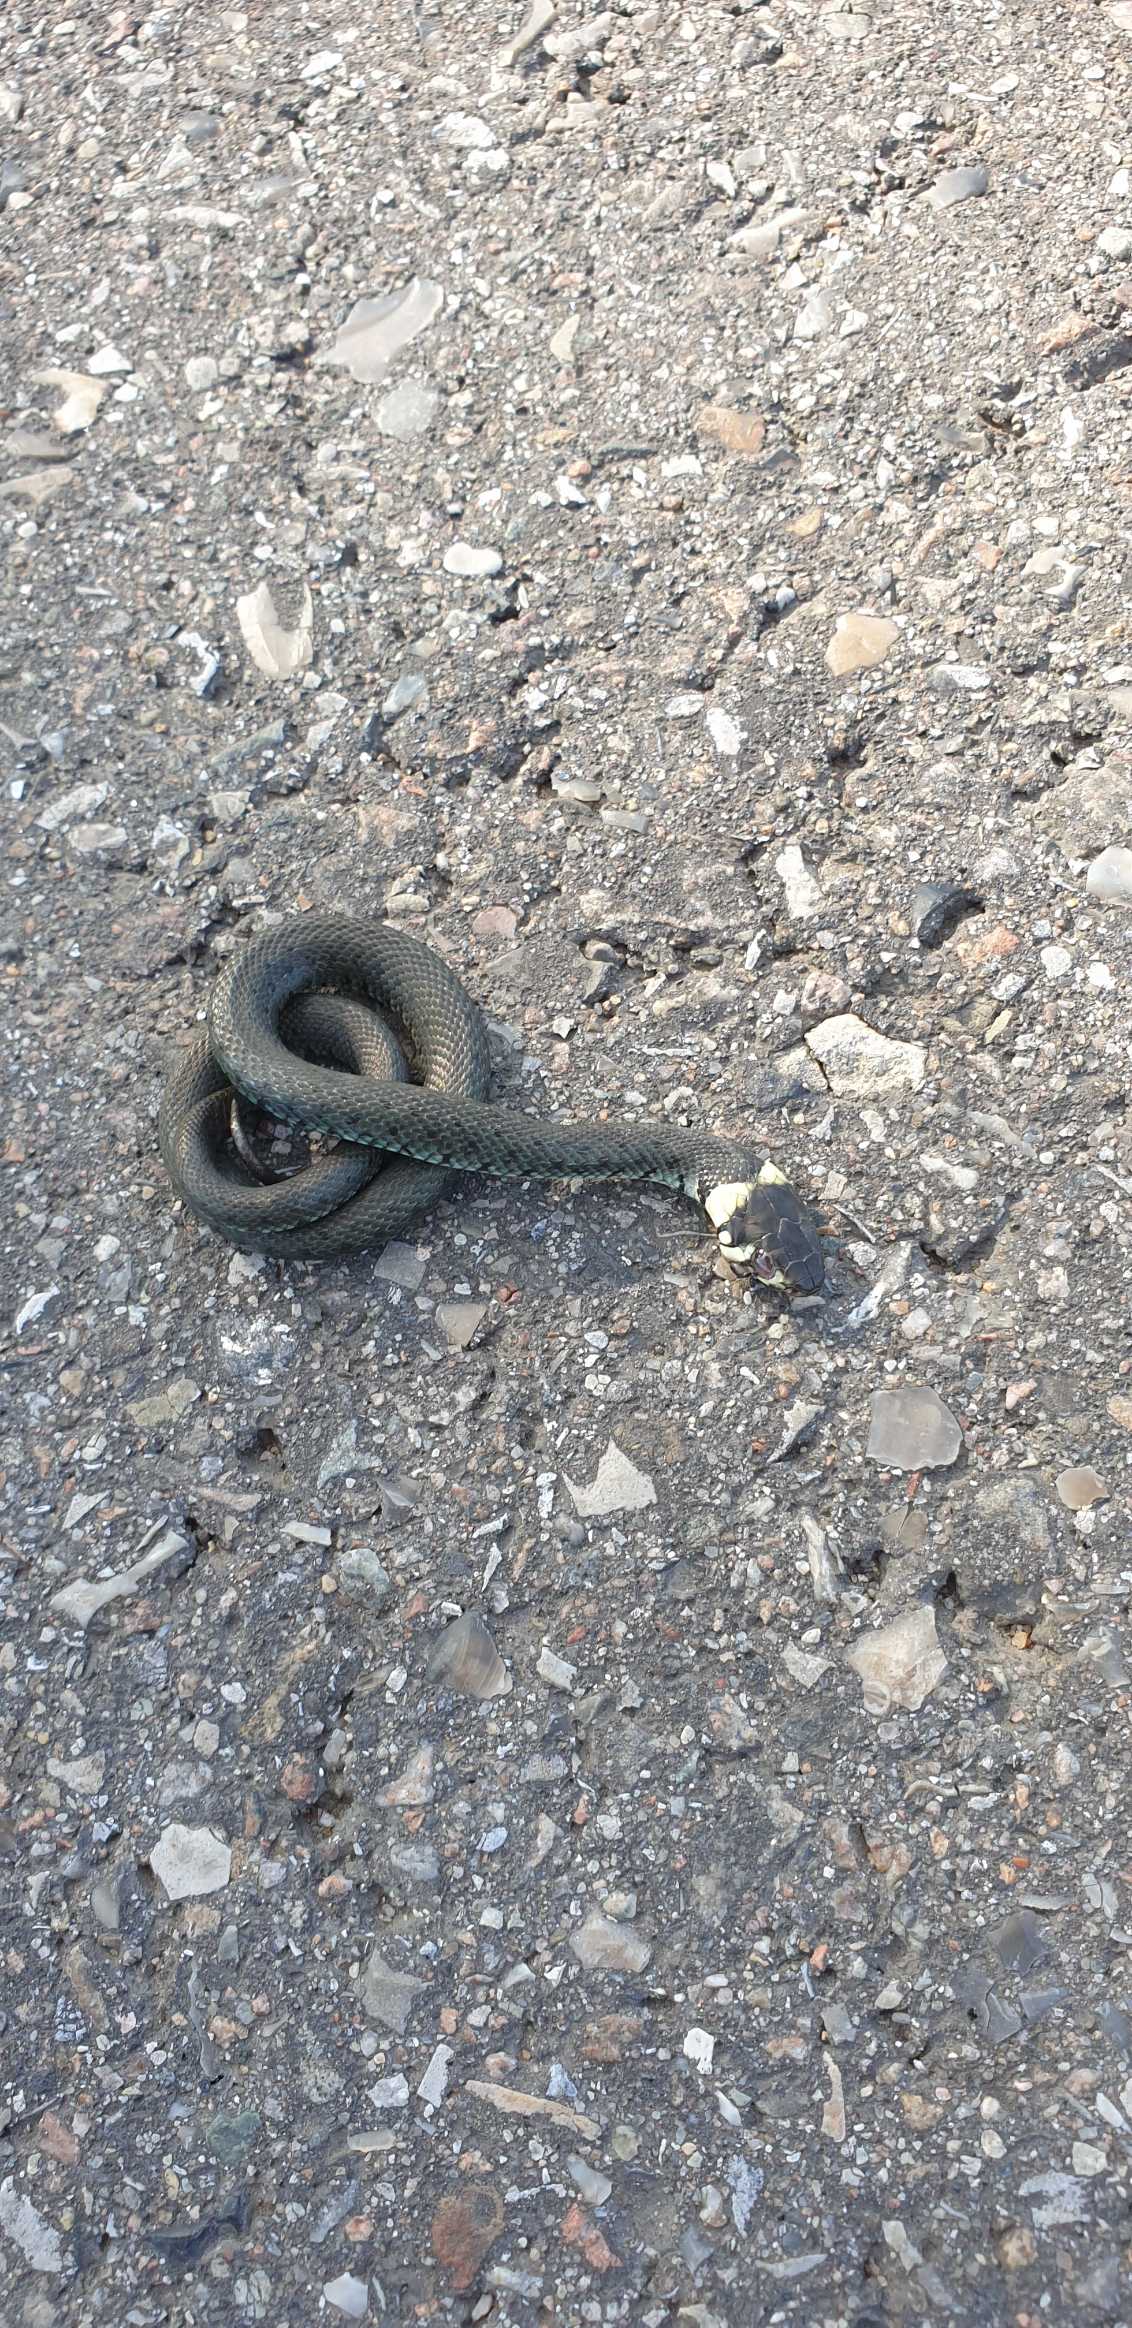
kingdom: Animalia
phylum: Chordata
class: Squamata
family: Colubridae
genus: Natrix
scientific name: Natrix natrix
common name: Snog
